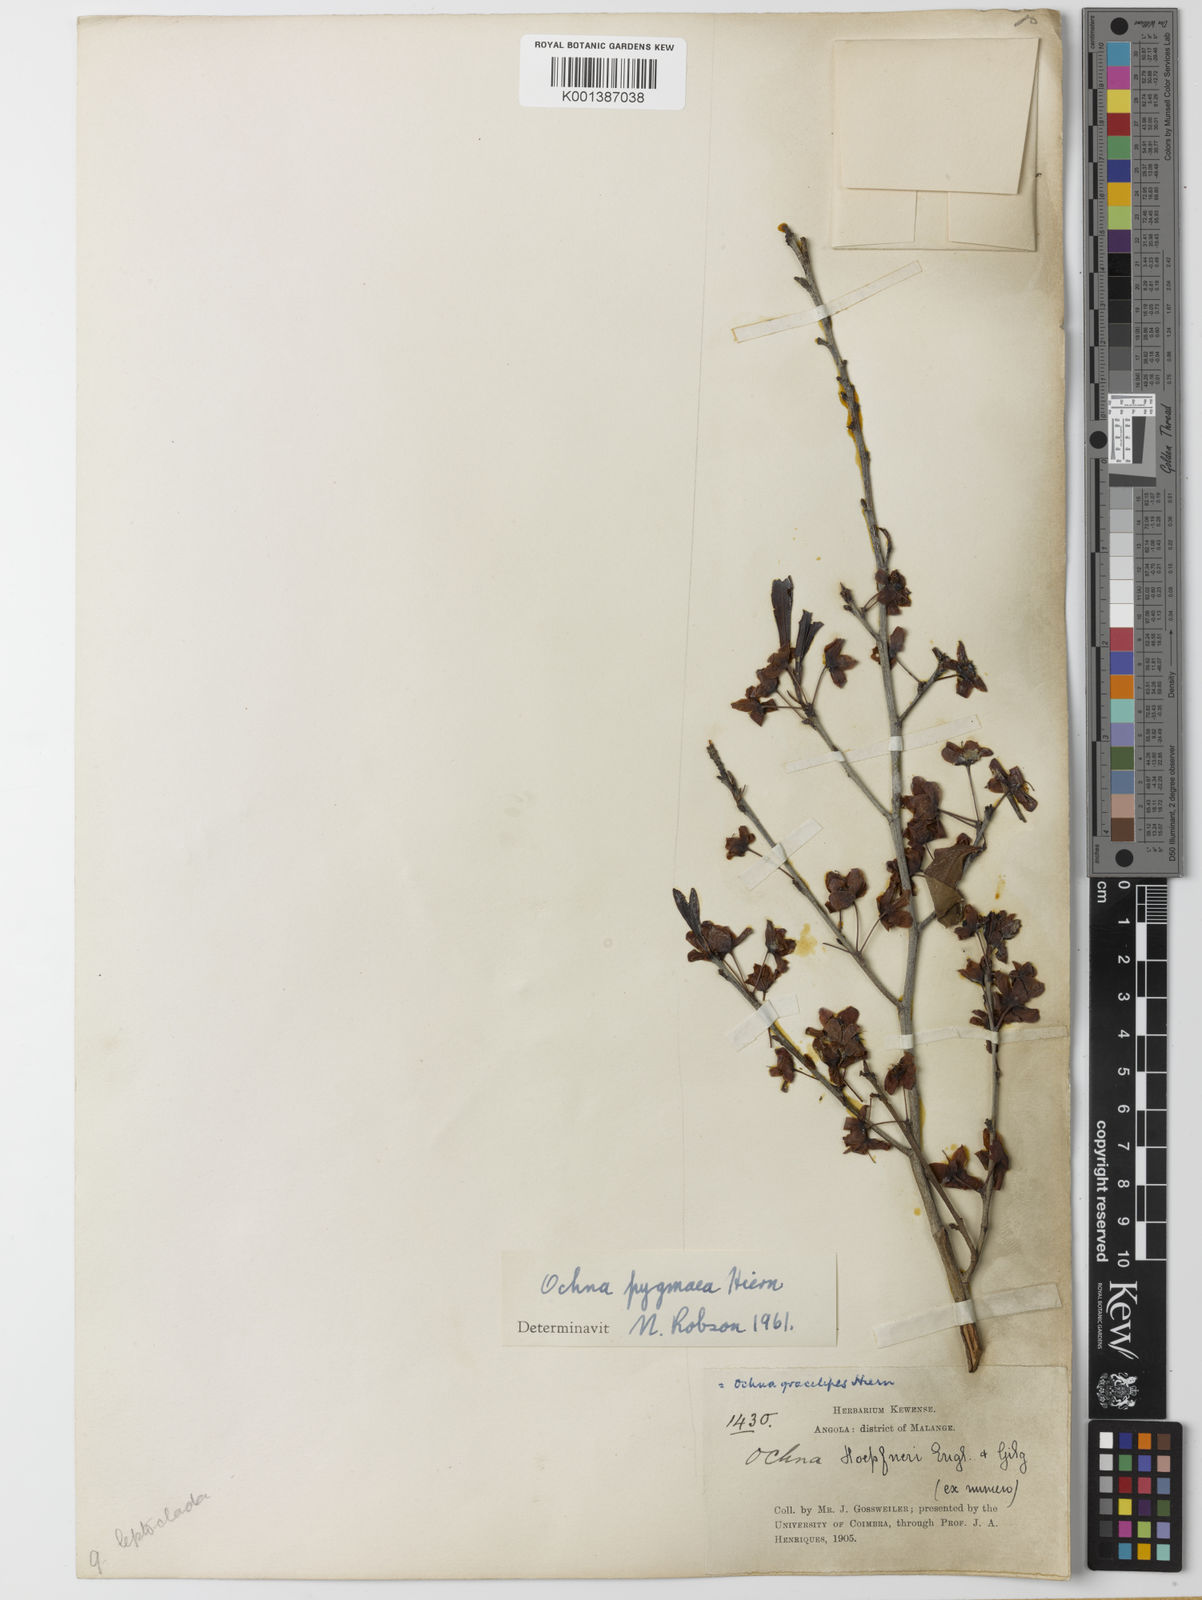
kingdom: Plantae
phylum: Tracheophyta
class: Magnoliopsida
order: Malpighiales
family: Ochnaceae
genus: Ochna
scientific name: Ochna pygmaea
